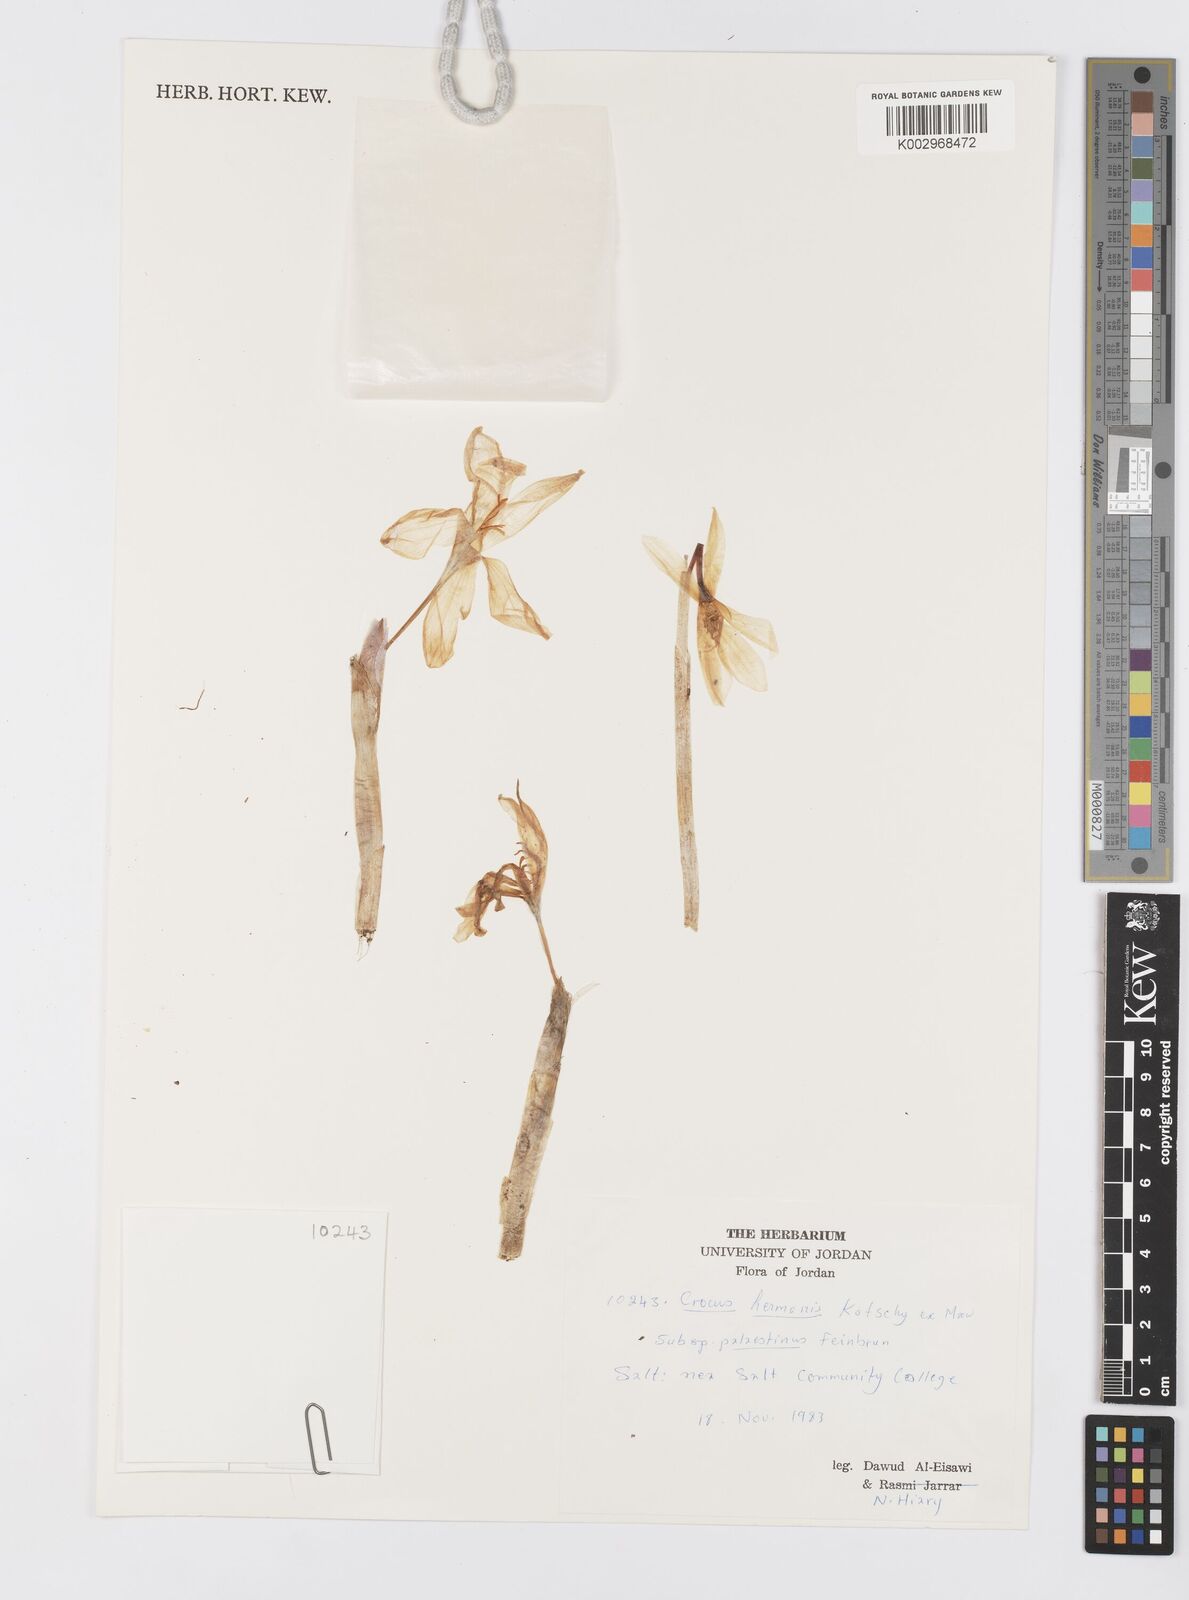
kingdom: Plantae
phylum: Tracheophyta
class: Liliopsida
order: Asparagales
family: Iridaceae
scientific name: Iridaceae
